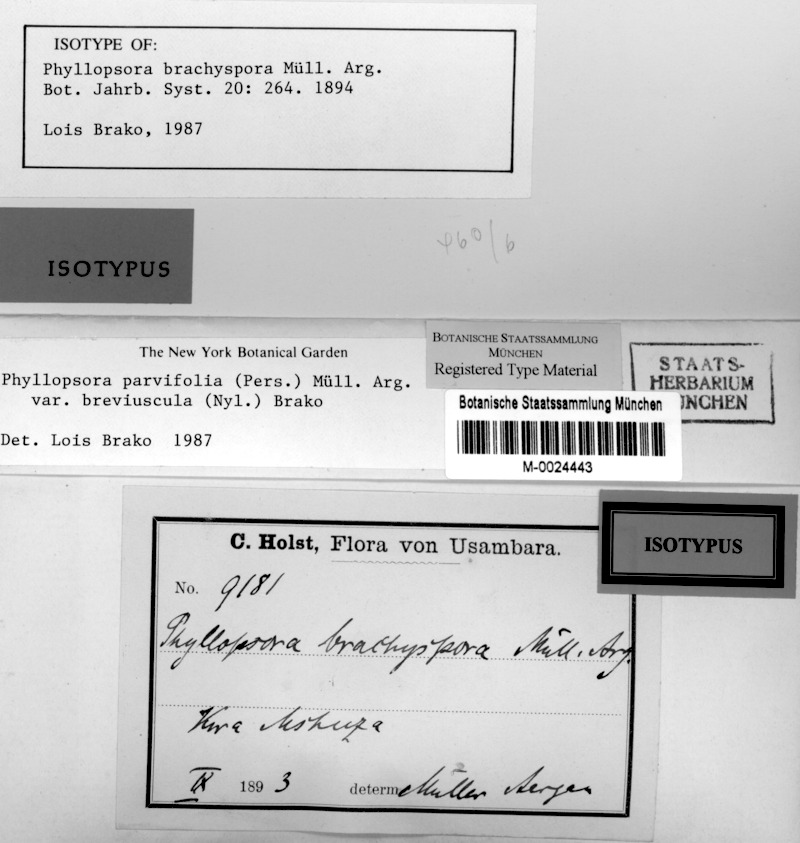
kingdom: Fungi
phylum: Ascomycota
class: Lecanoromycetes
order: Lecanorales
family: Ramalinaceae
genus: Phyllopsora
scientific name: Phyllopsora breviuscula
